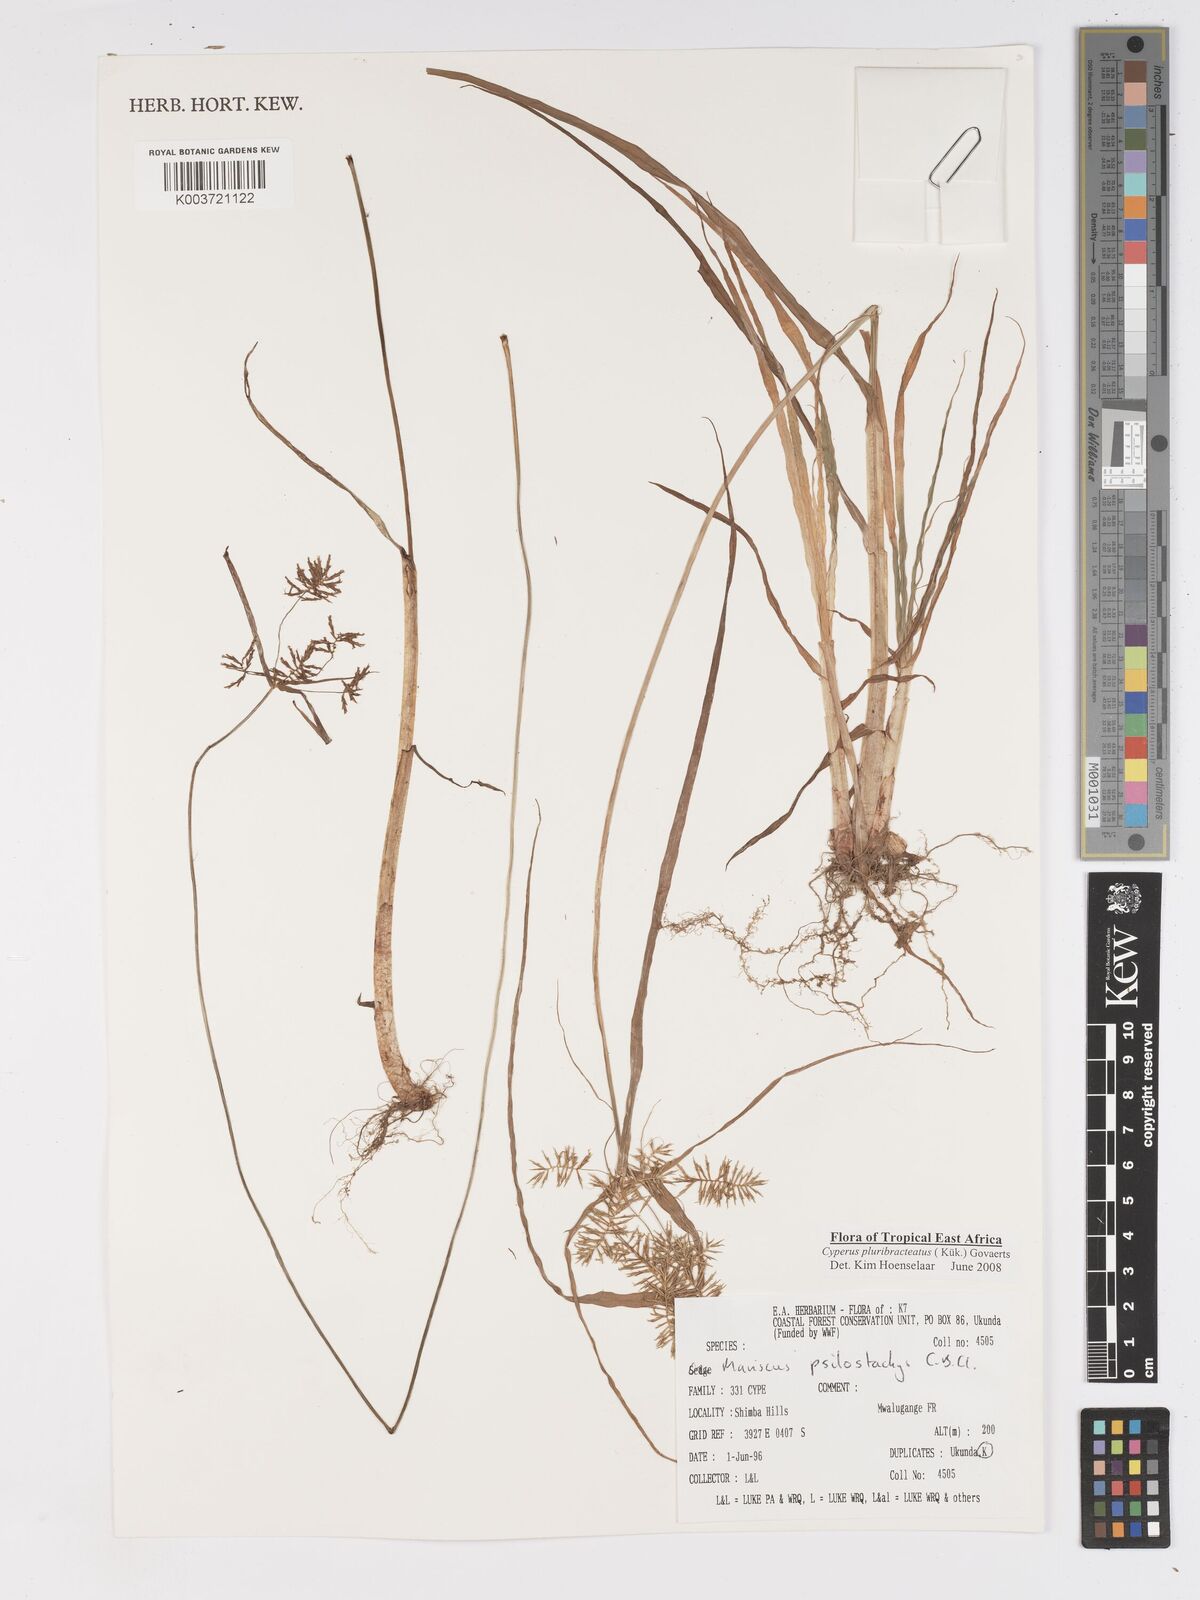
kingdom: Plantae
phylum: Tracheophyta
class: Liliopsida
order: Poales
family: Cyperaceae
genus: Cyperus
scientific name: Cyperus trigonellus
